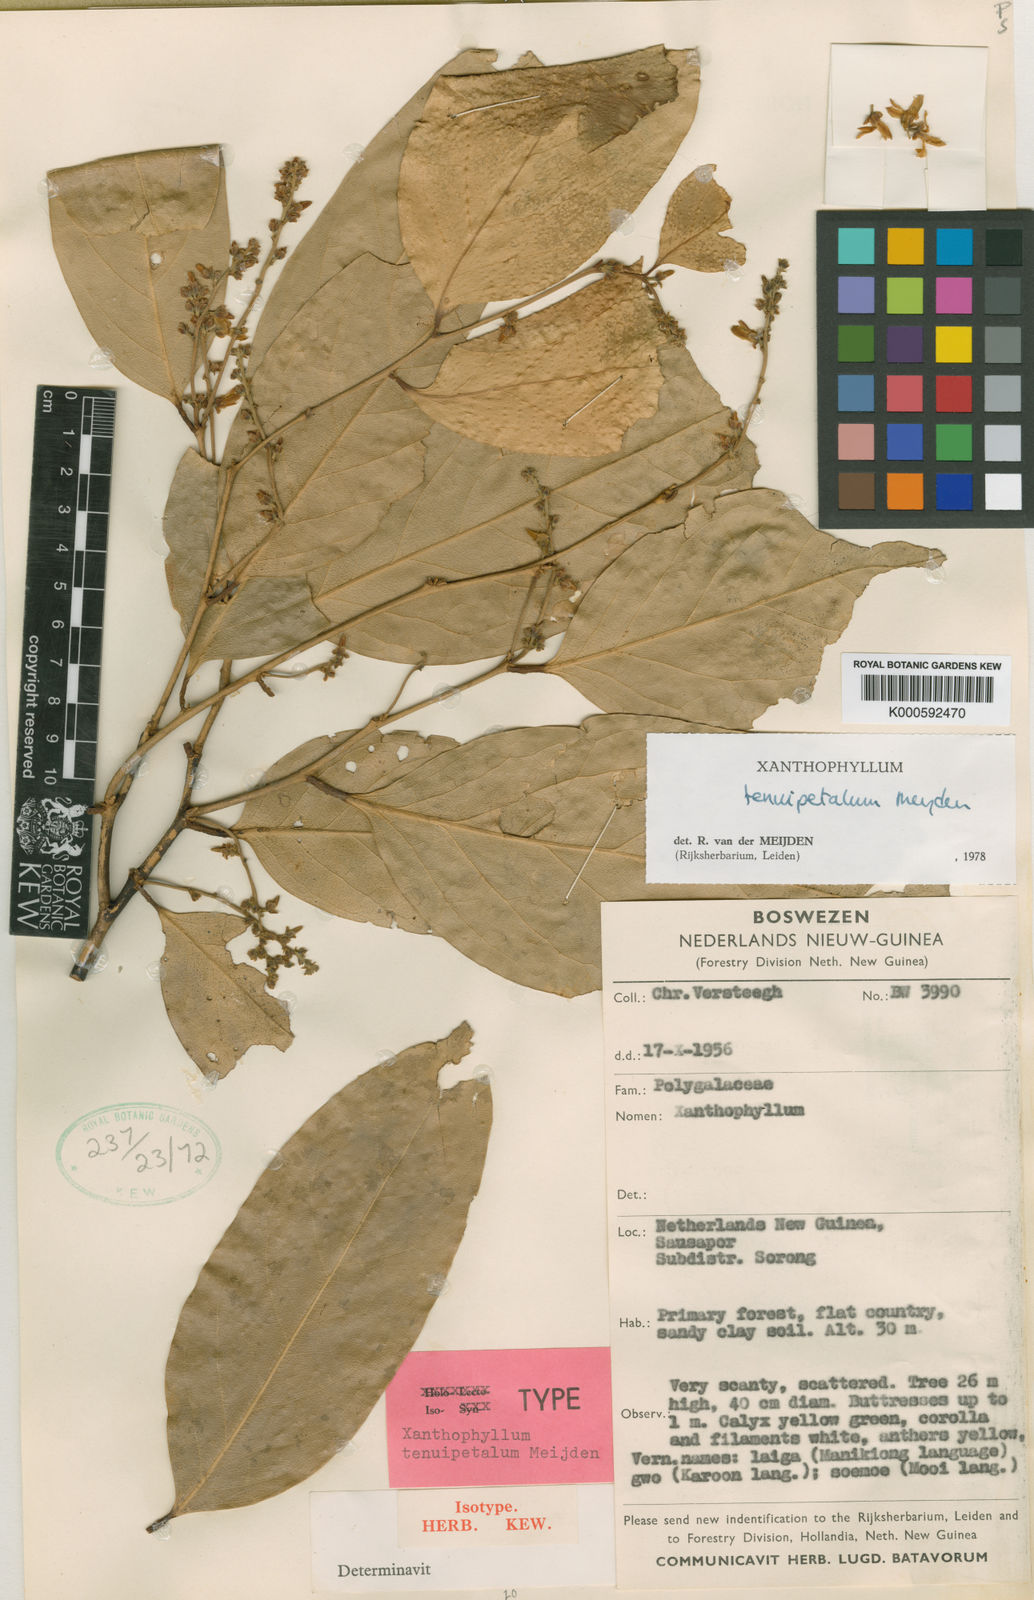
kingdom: Plantae
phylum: Tracheophyta
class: Magnoliopsida
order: Fabales
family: Polygalaceae
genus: Xanthophyllum
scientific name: Xanthophyllum tenuipetalum
